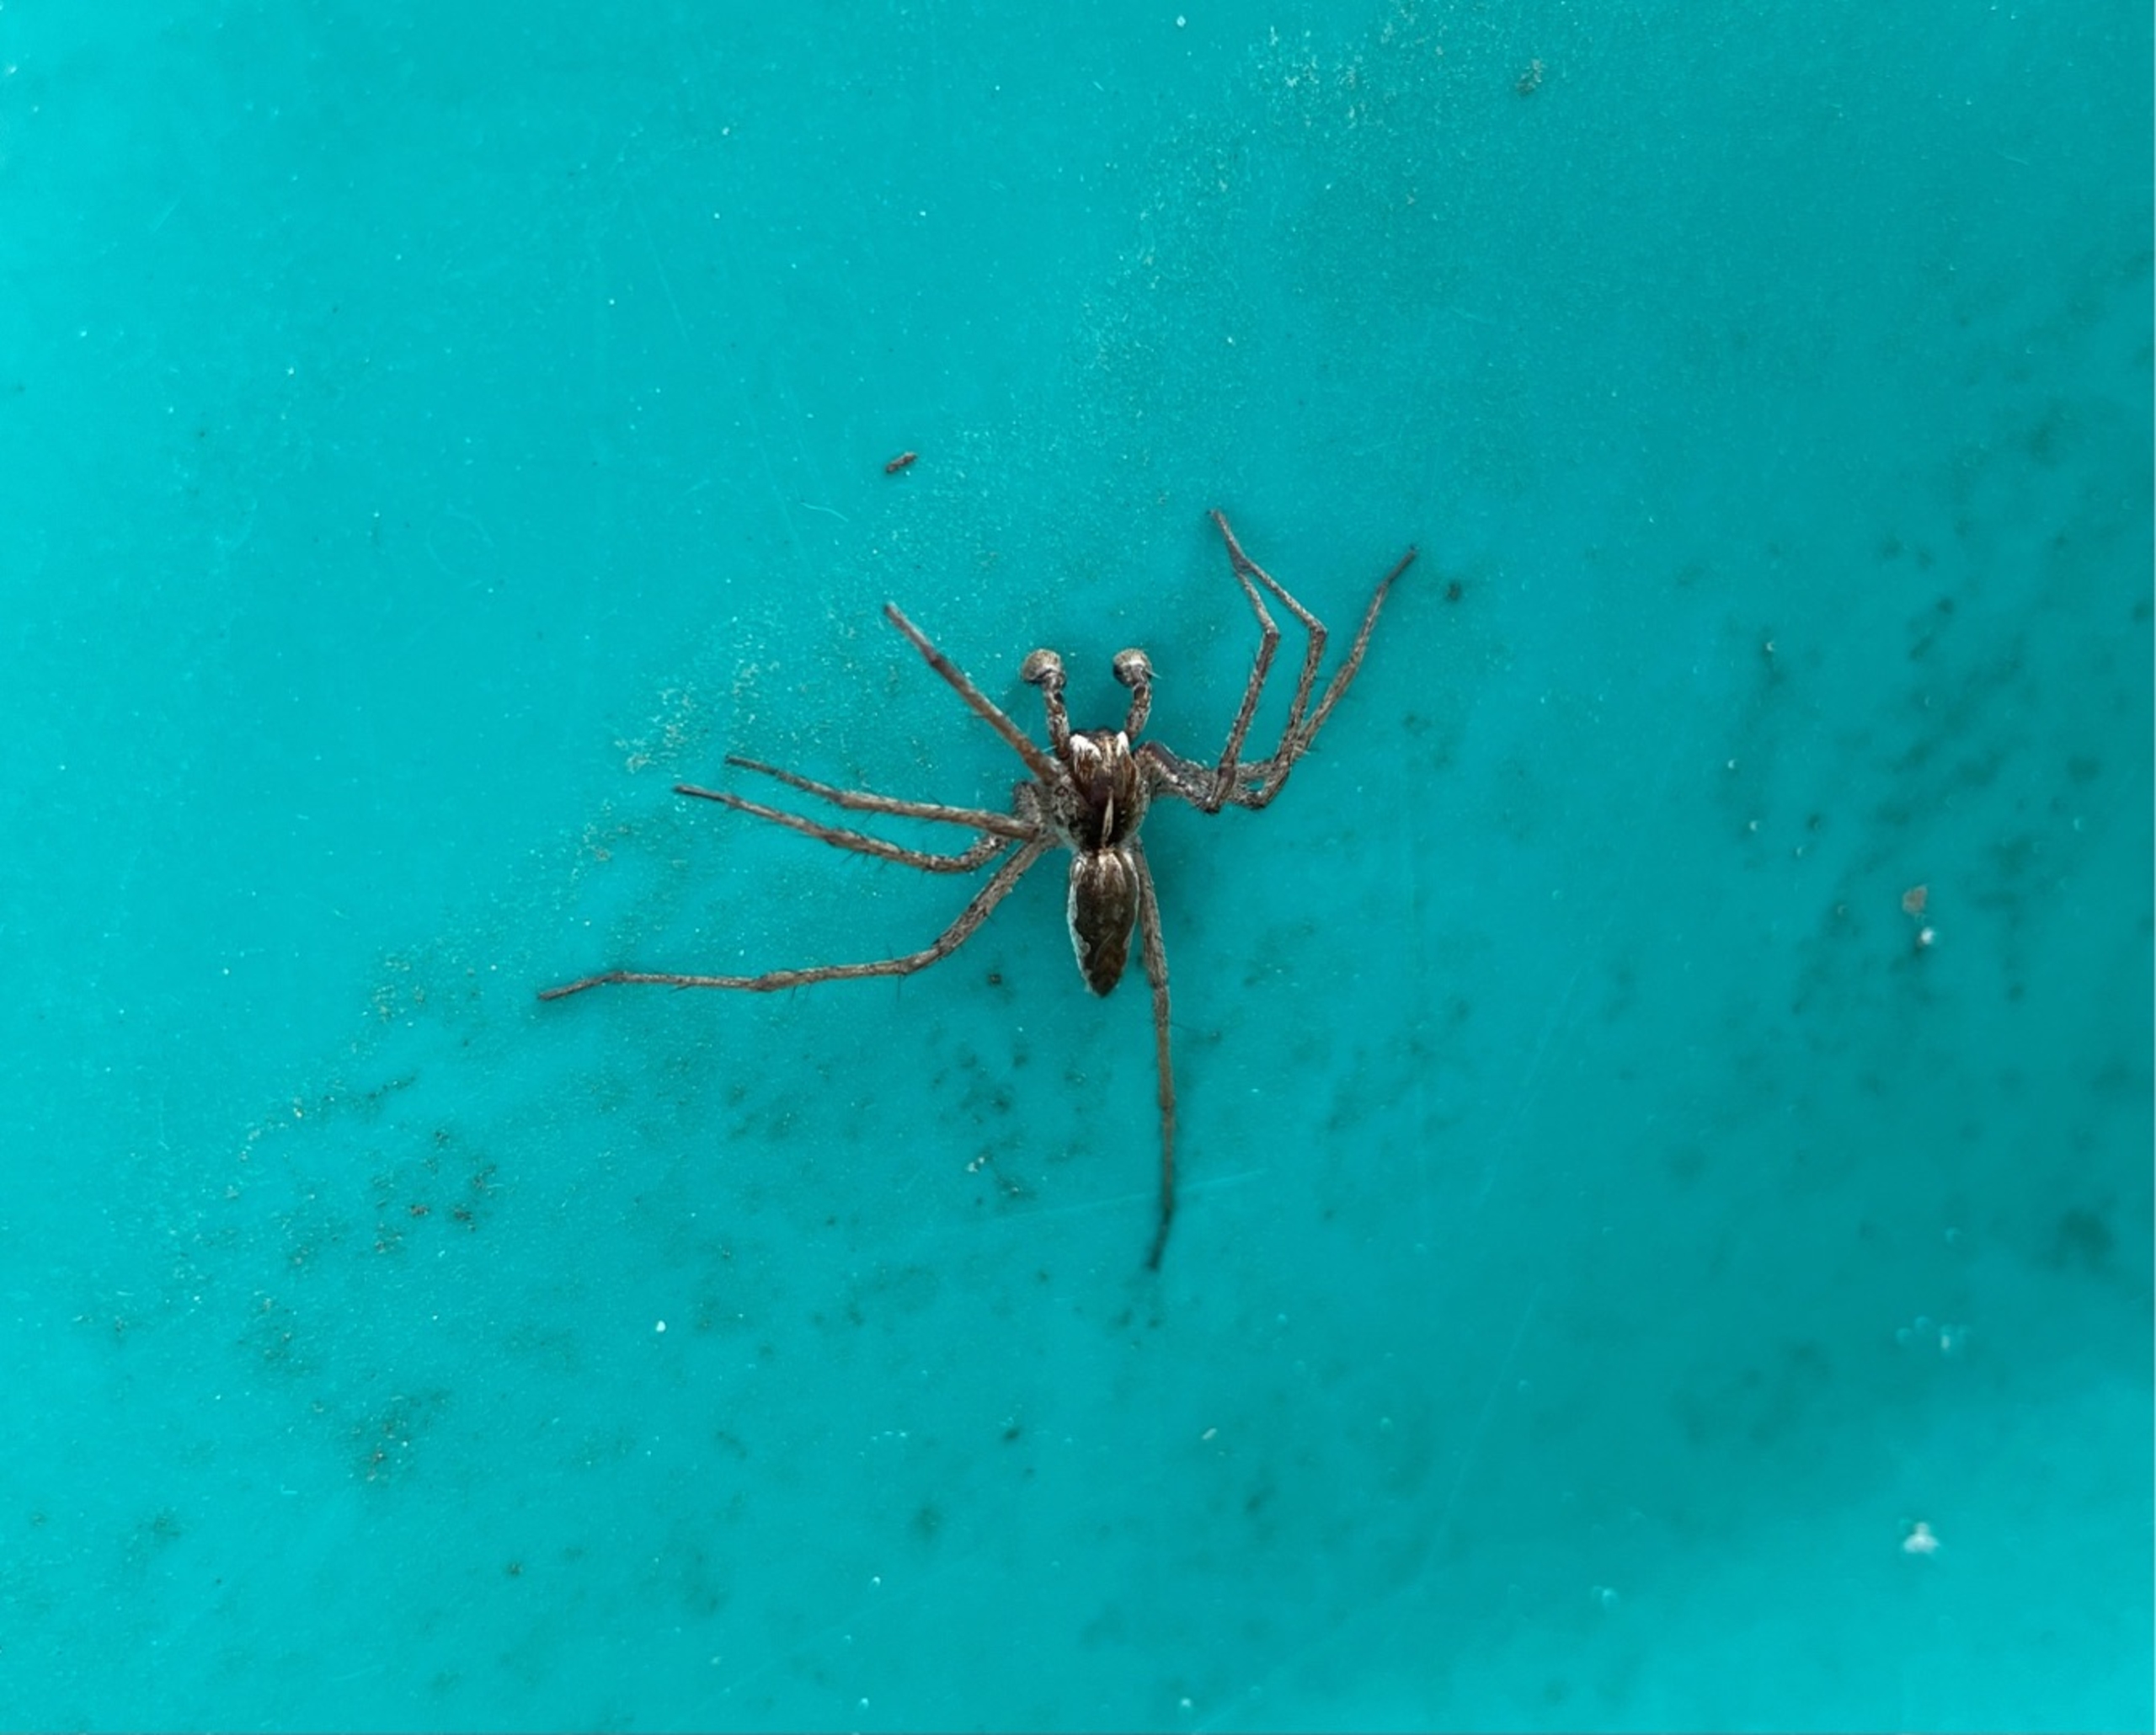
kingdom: Animalia
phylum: Arthropoda
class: Arachnida
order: Araneae
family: Pisauridae
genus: Pisaura
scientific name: Pisaura mirabilis
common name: Almindelig rovedderkop
